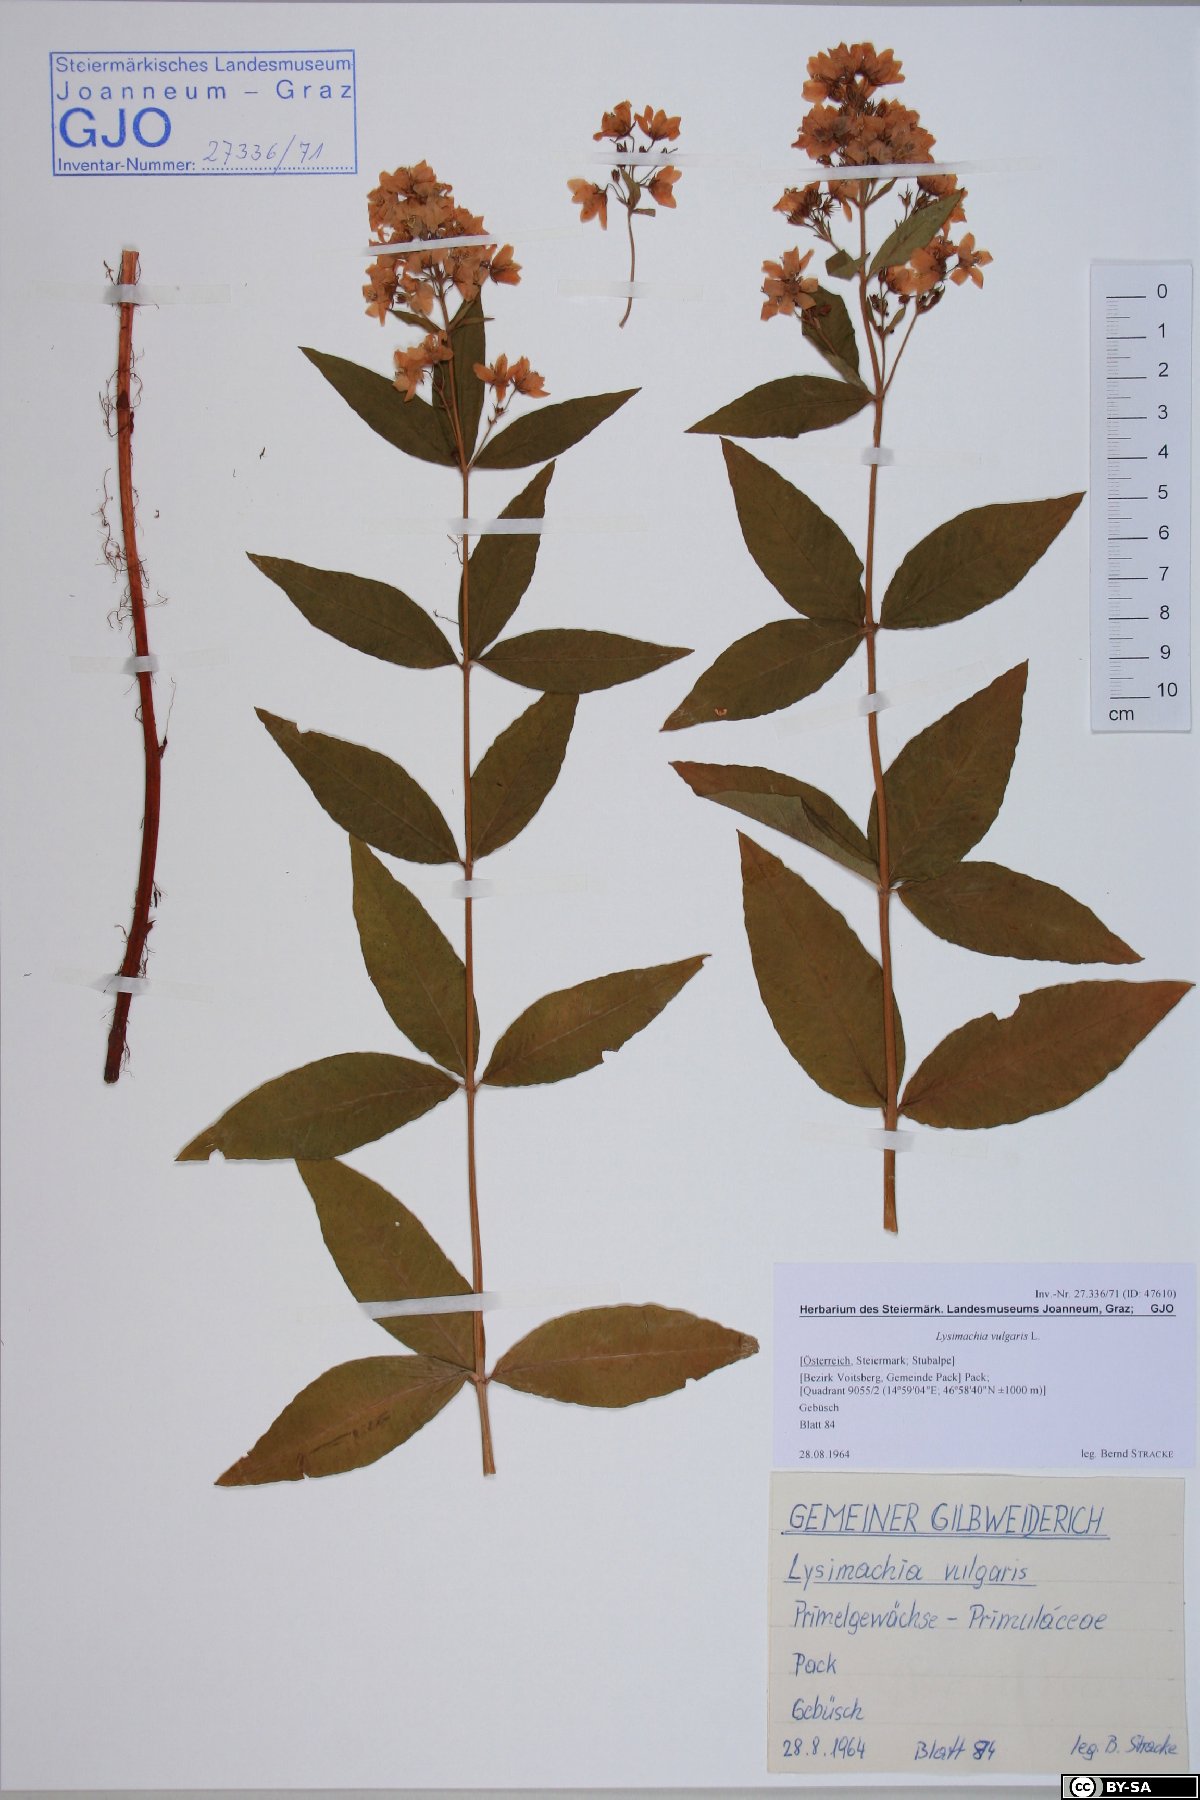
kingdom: Plantae
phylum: Tracheophyta
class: Magnoliopsida
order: Ericales
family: Primulaceae
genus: Lysimachia
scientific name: Lysimachia vulgaris
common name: Yellow loosestrife
